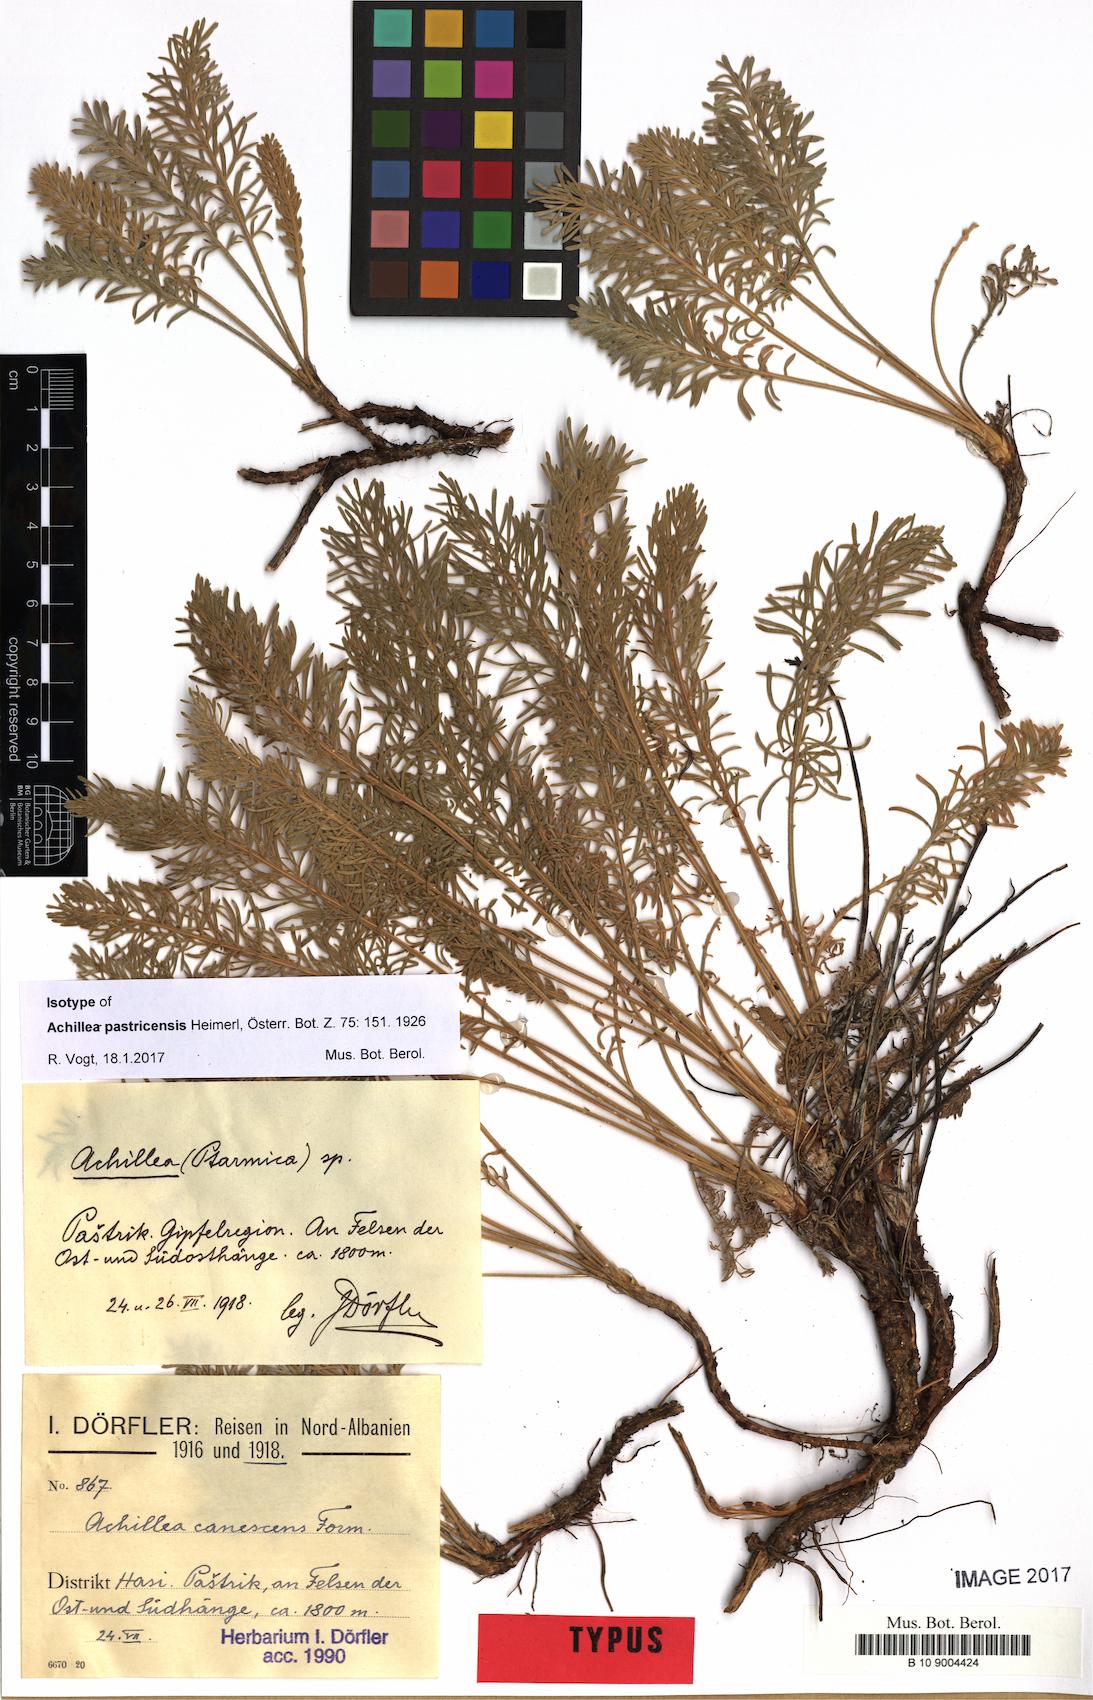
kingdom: Plantae
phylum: Tracheophyta
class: Magnoliopsida
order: Asterales
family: Asteraceae
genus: Achillea
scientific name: Achillea fraasii
